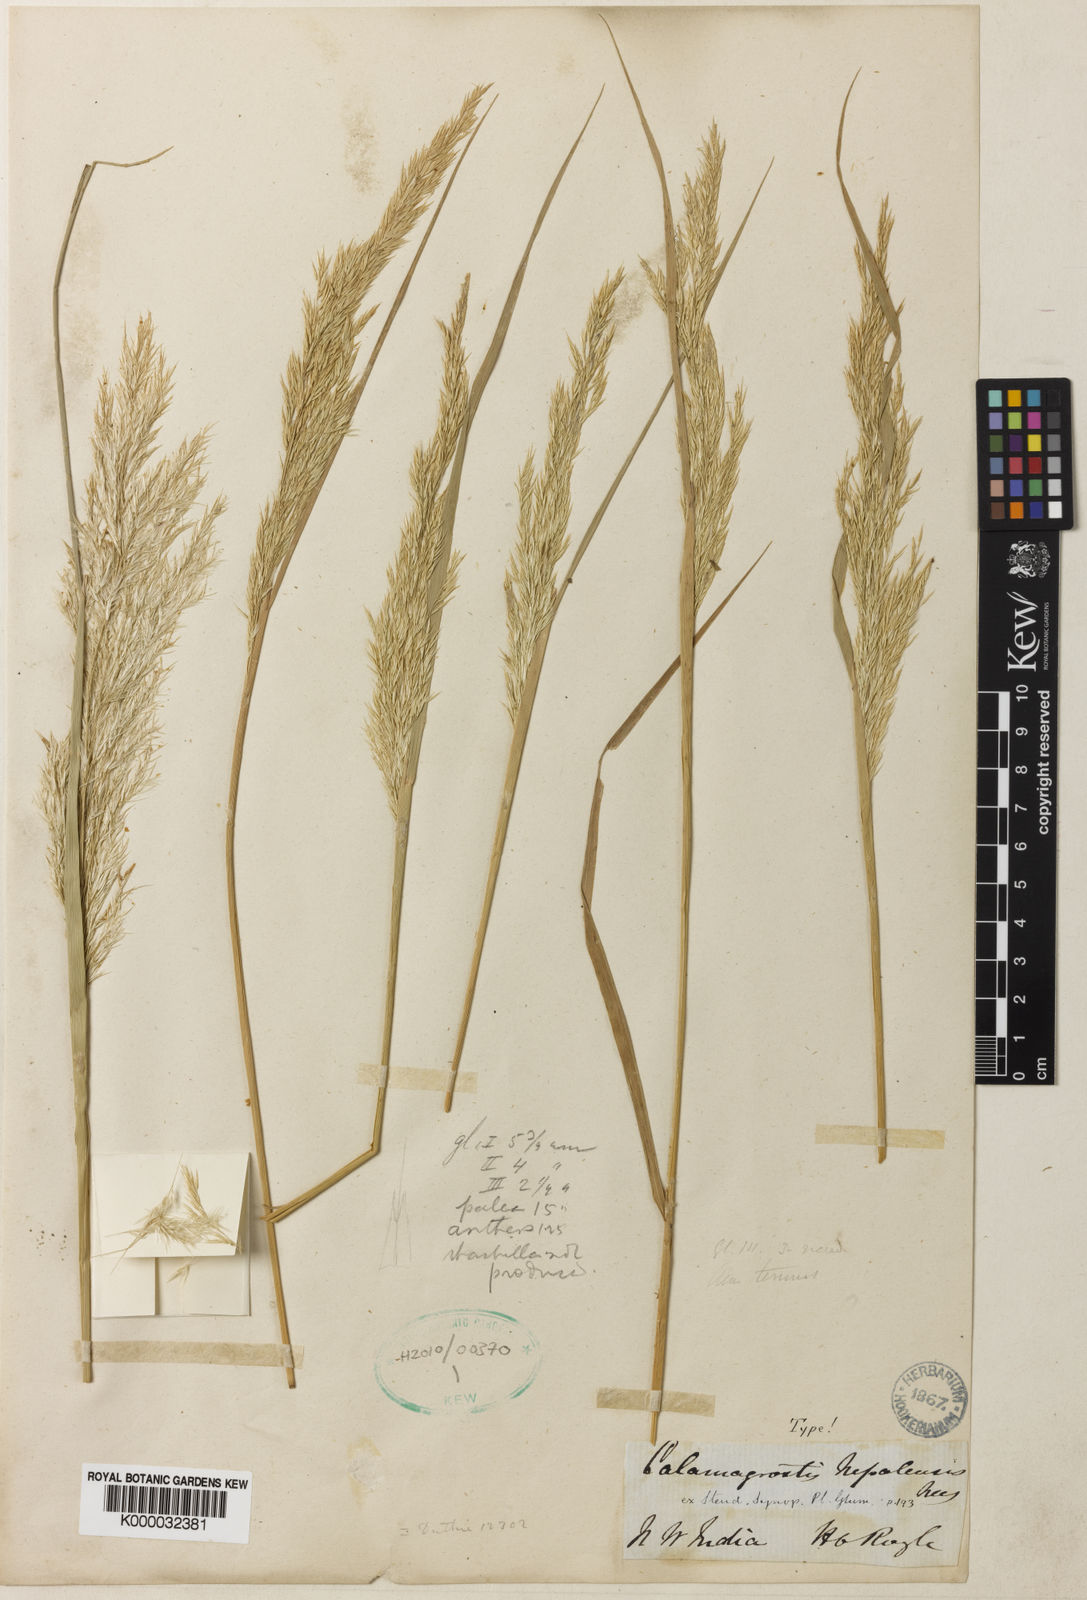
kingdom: Plantae
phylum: Tracheophyta
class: Liliopsida
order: Poales
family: Poaceae
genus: Calamagrostis
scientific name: Calamagrostis pseudophragmites
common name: Coastal small-reed
